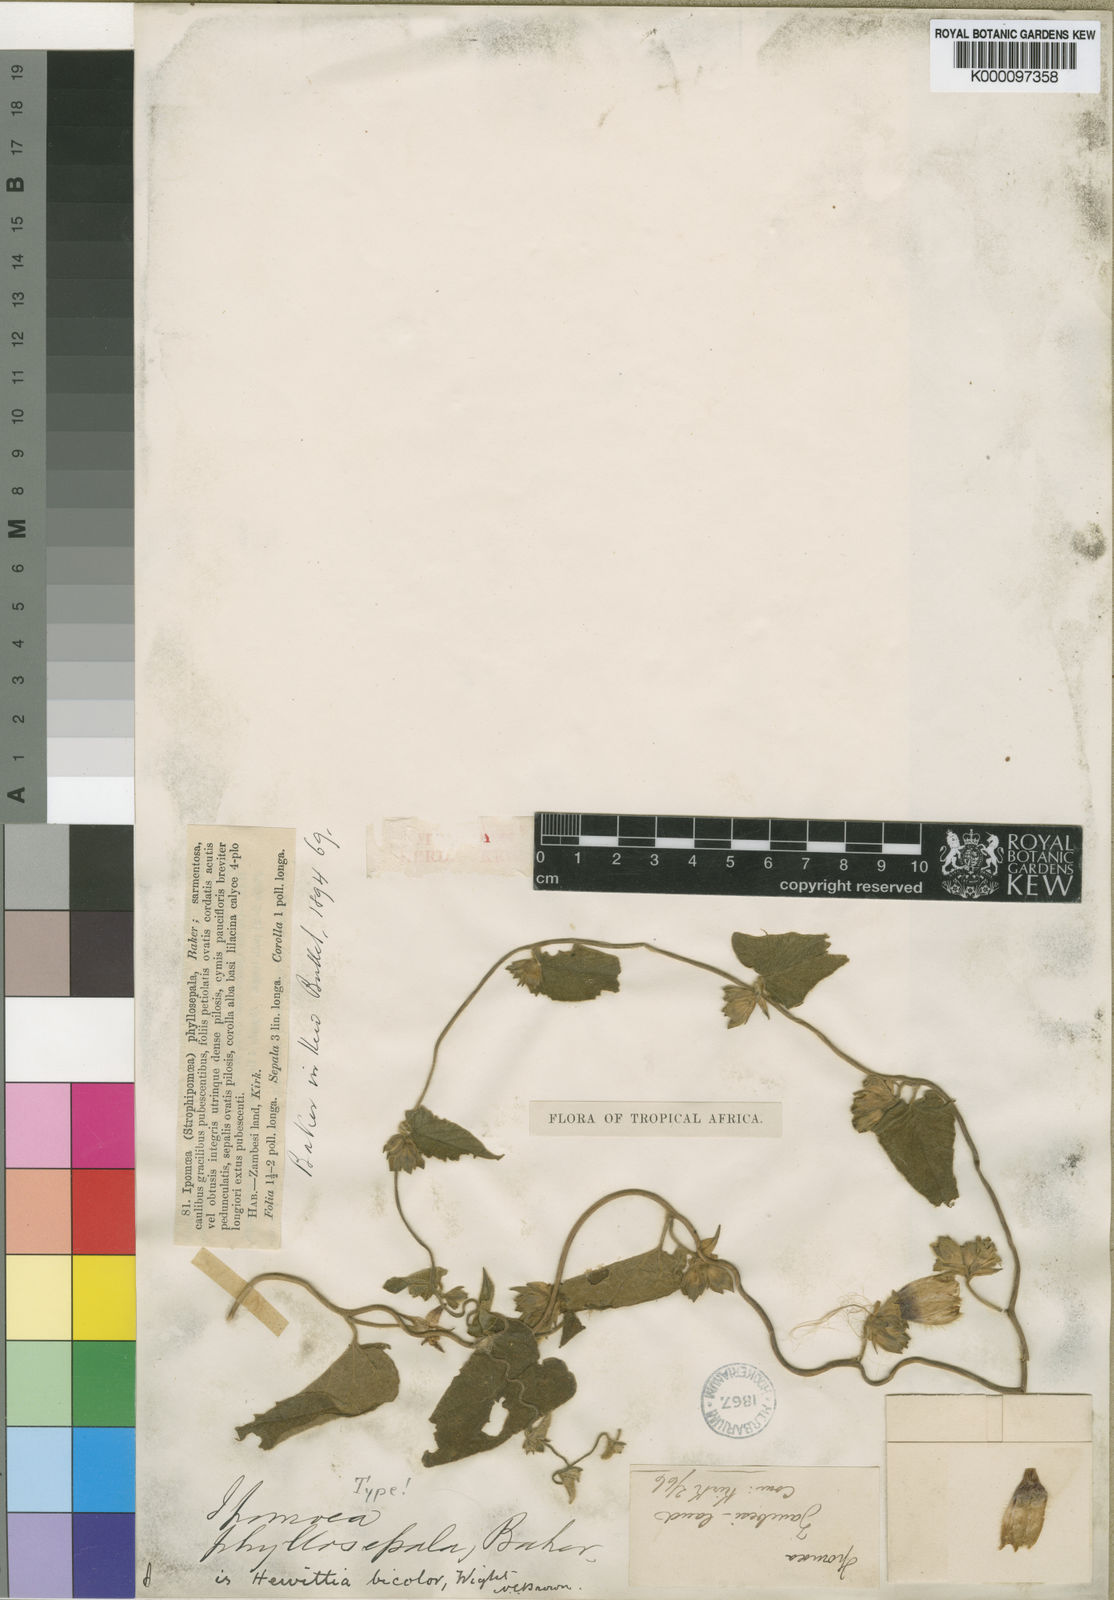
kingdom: Plantae
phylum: Tracheophyta
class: Magnoliopsida
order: Solanales
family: Convolvulaceae
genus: Hewittia
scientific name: Hewittia malabarica
